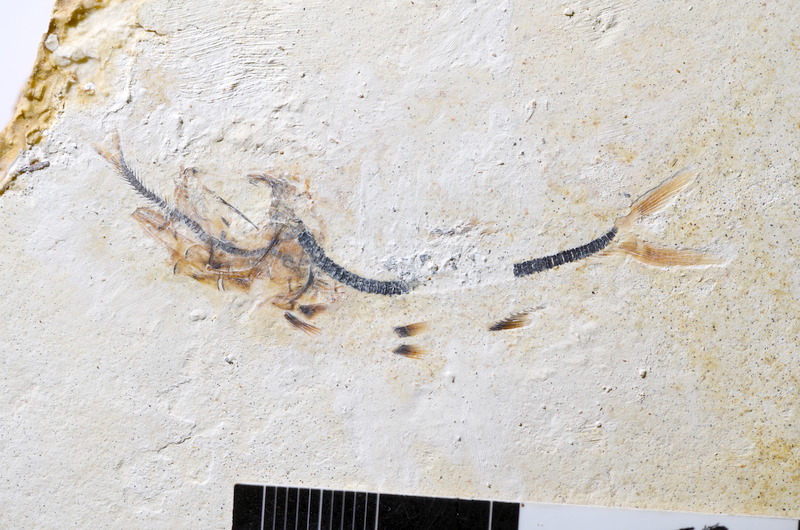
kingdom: Animalia
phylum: Chordata
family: Ascalaboidae
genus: Ebertichthys
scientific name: Ebertichthys ettlingensis
